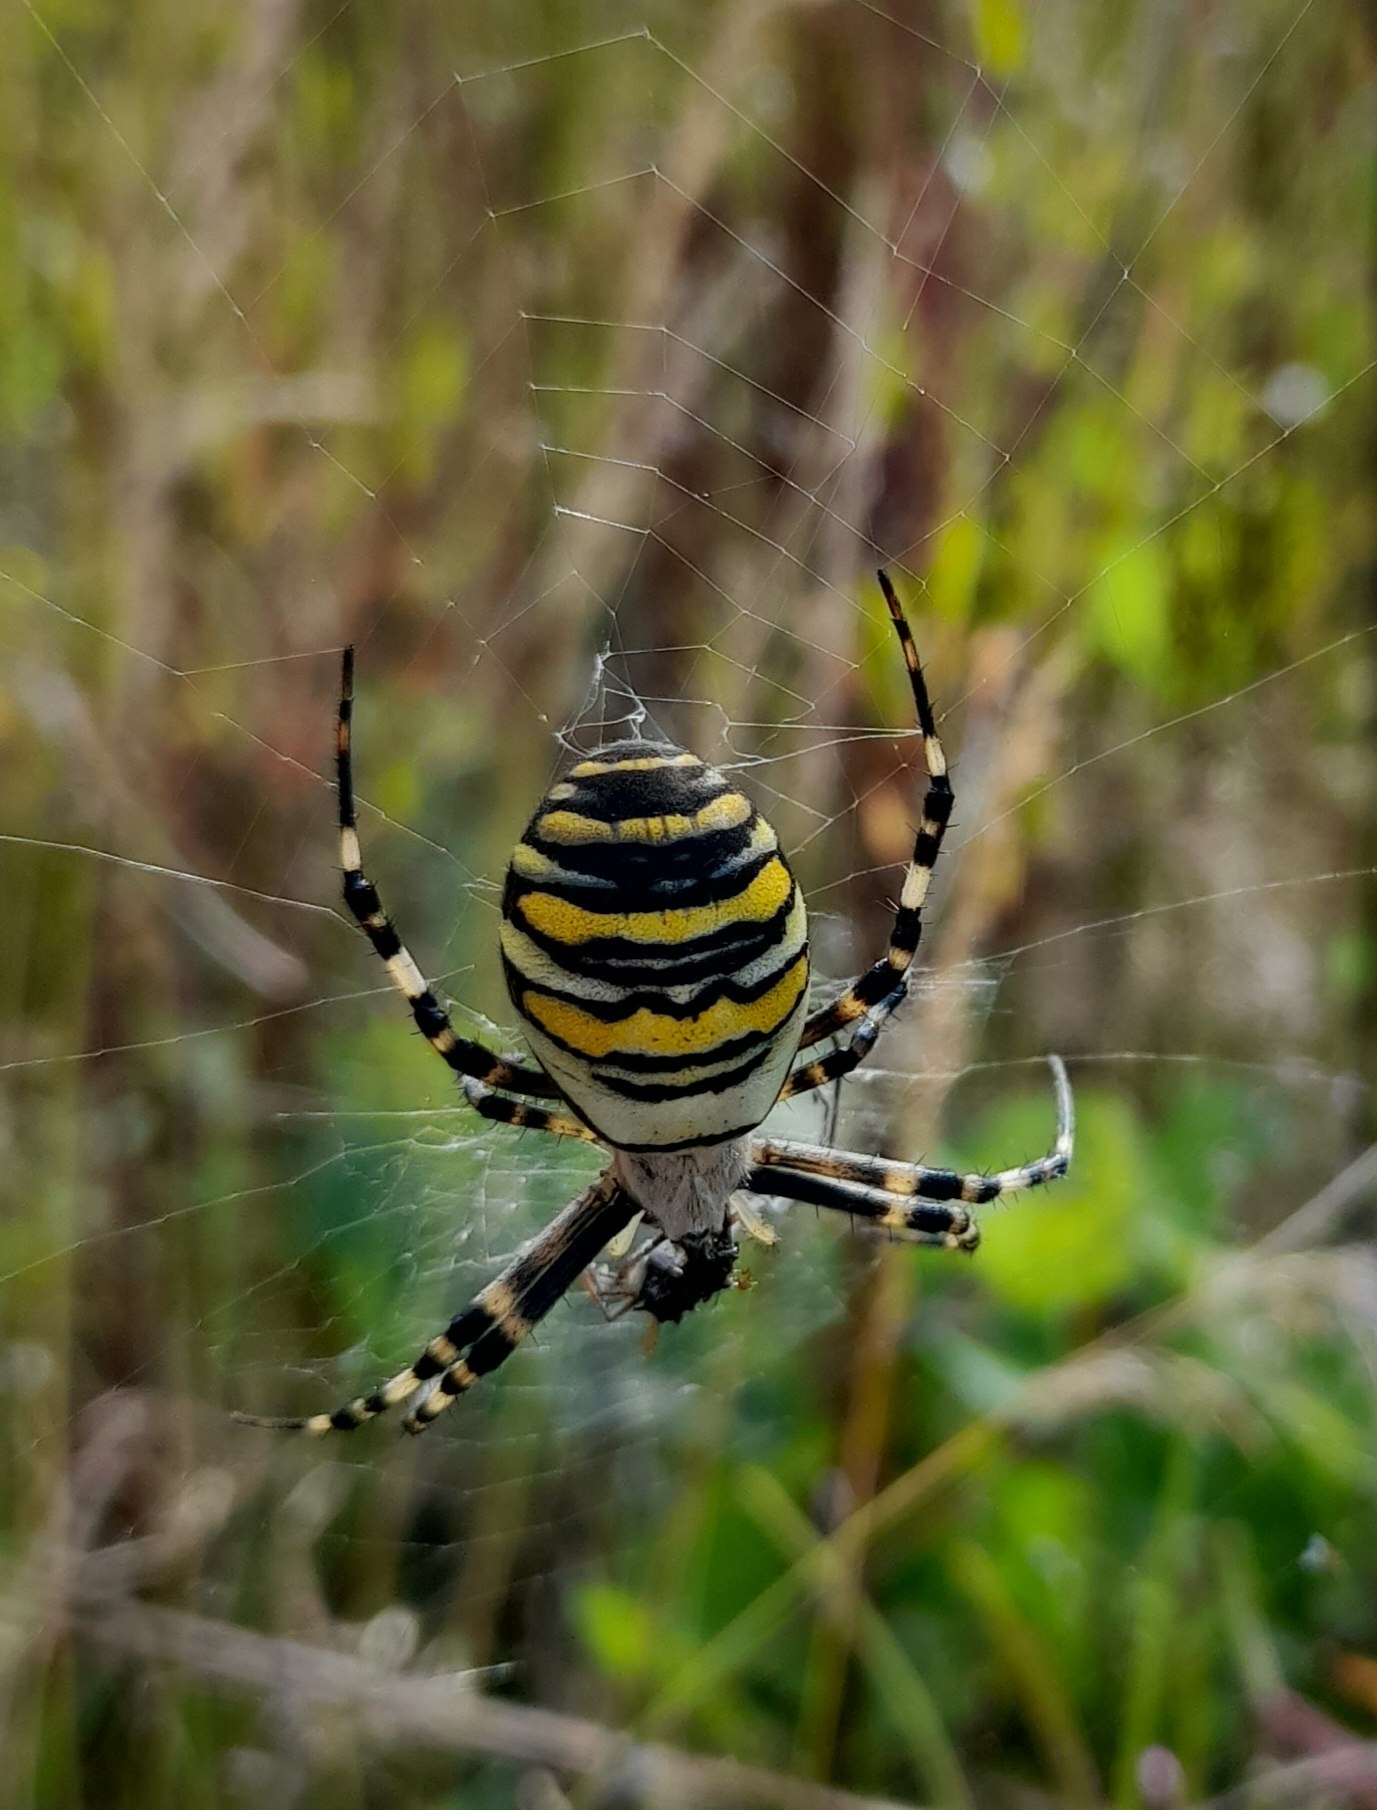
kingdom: Animalia
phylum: Arthropoda
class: Arachnida
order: Araneae
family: Araneidae
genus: Argiope
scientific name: Argiope bruennichi
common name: Hvepseedderkop
